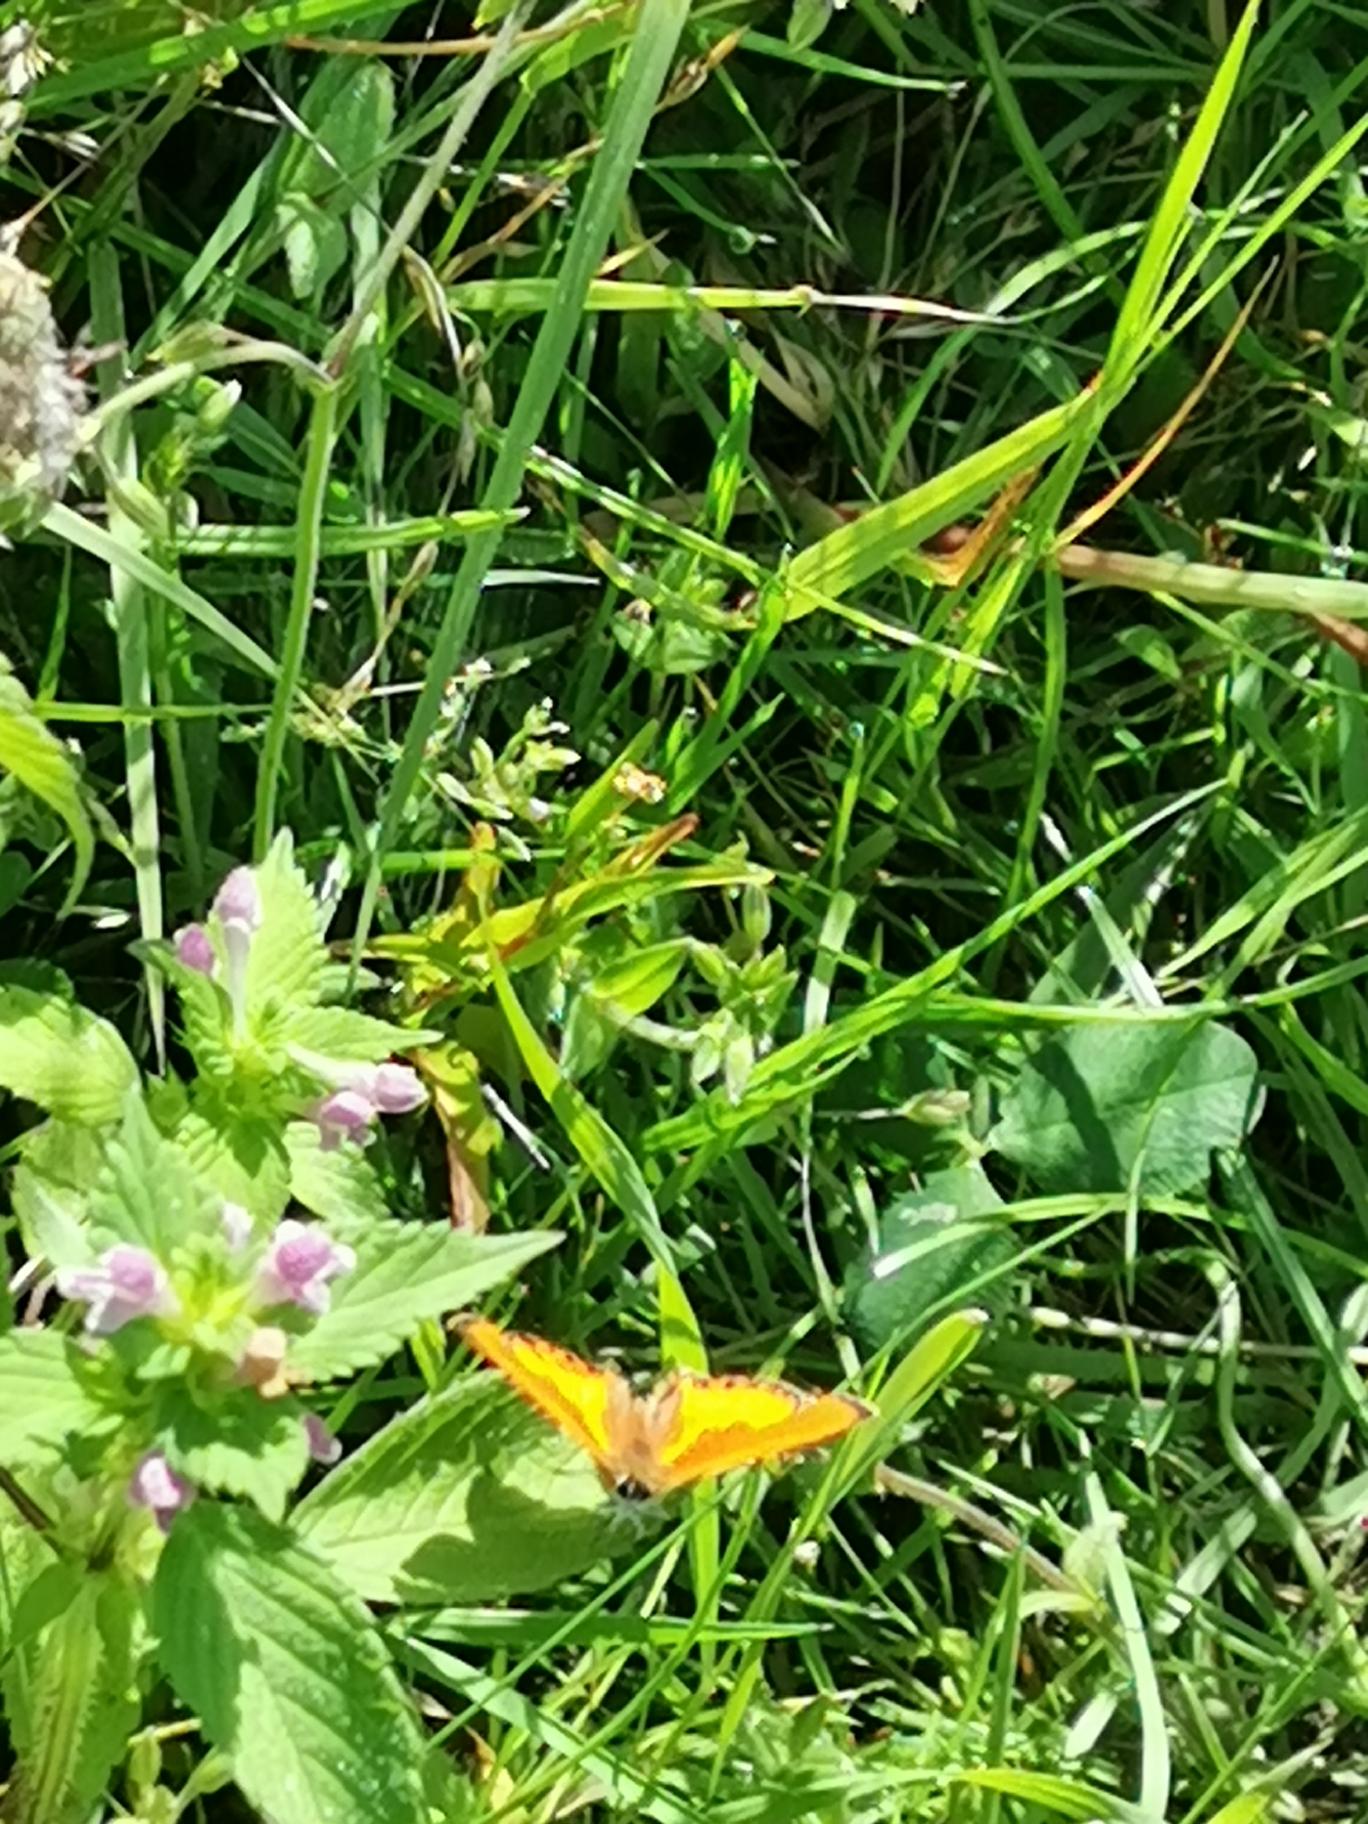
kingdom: Animalia
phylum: Arthropoda
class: Insecta
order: Lepidoptera
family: Lycaenidae
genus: Lycaena
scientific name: Lycaena virgaureae
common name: Dukatsommerfugl
